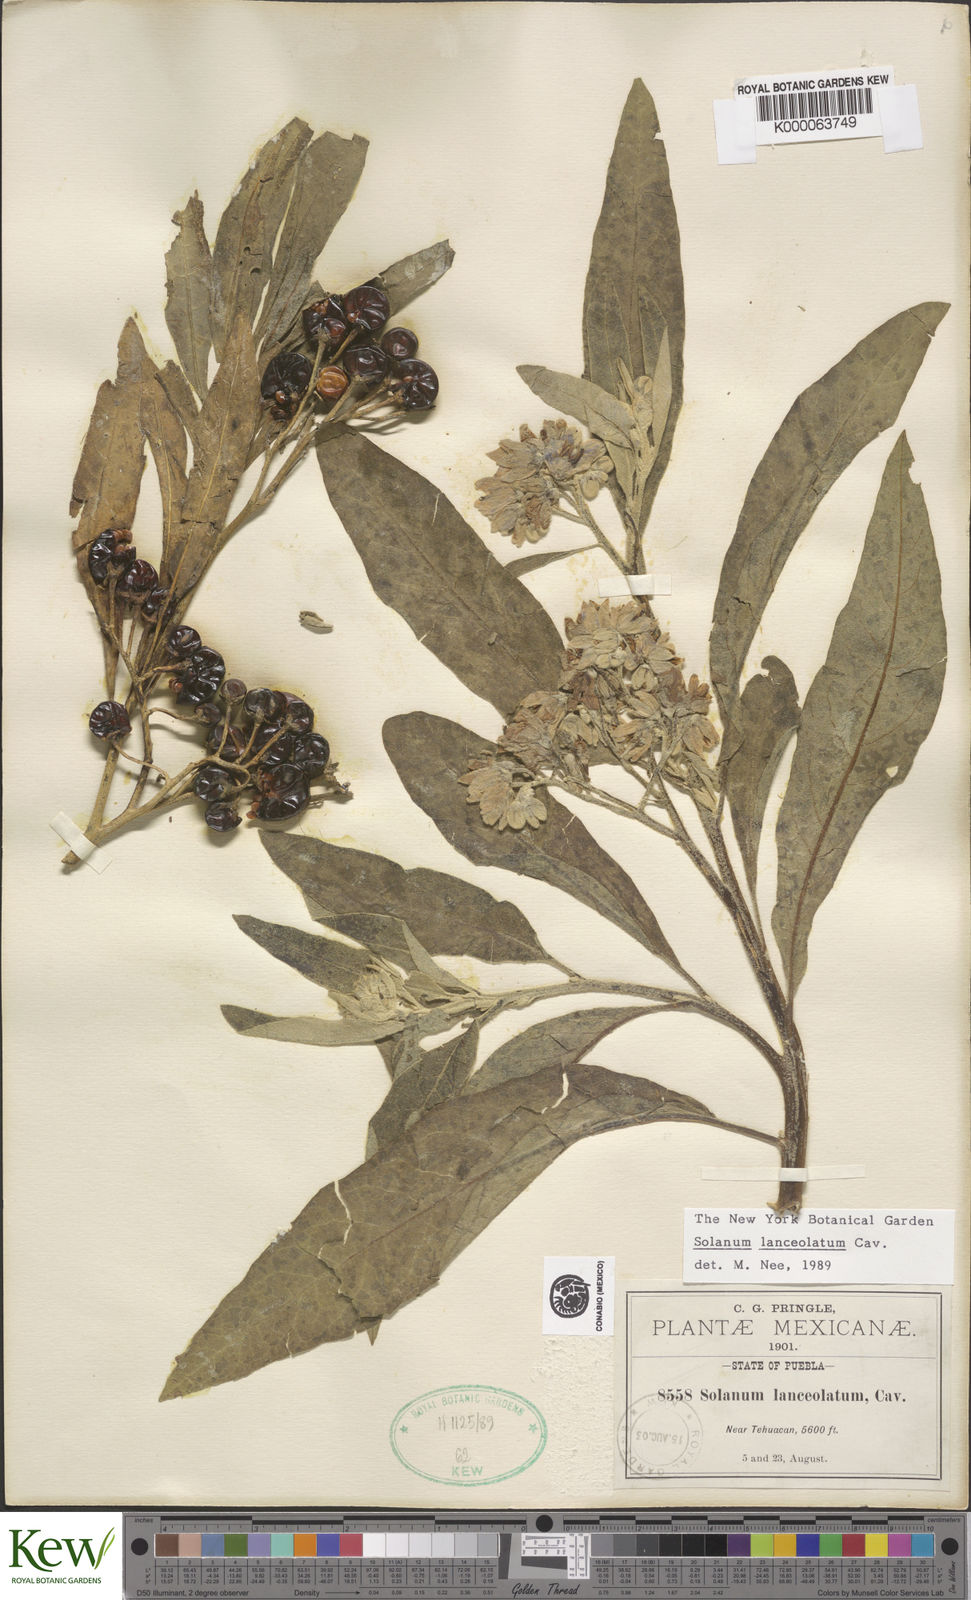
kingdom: Plantae
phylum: Tracheophyta
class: Magnoliopsida
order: Solanales
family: Solanaceae
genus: Solanum
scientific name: Solanum lanceolatum
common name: Orangeberry nightshade
